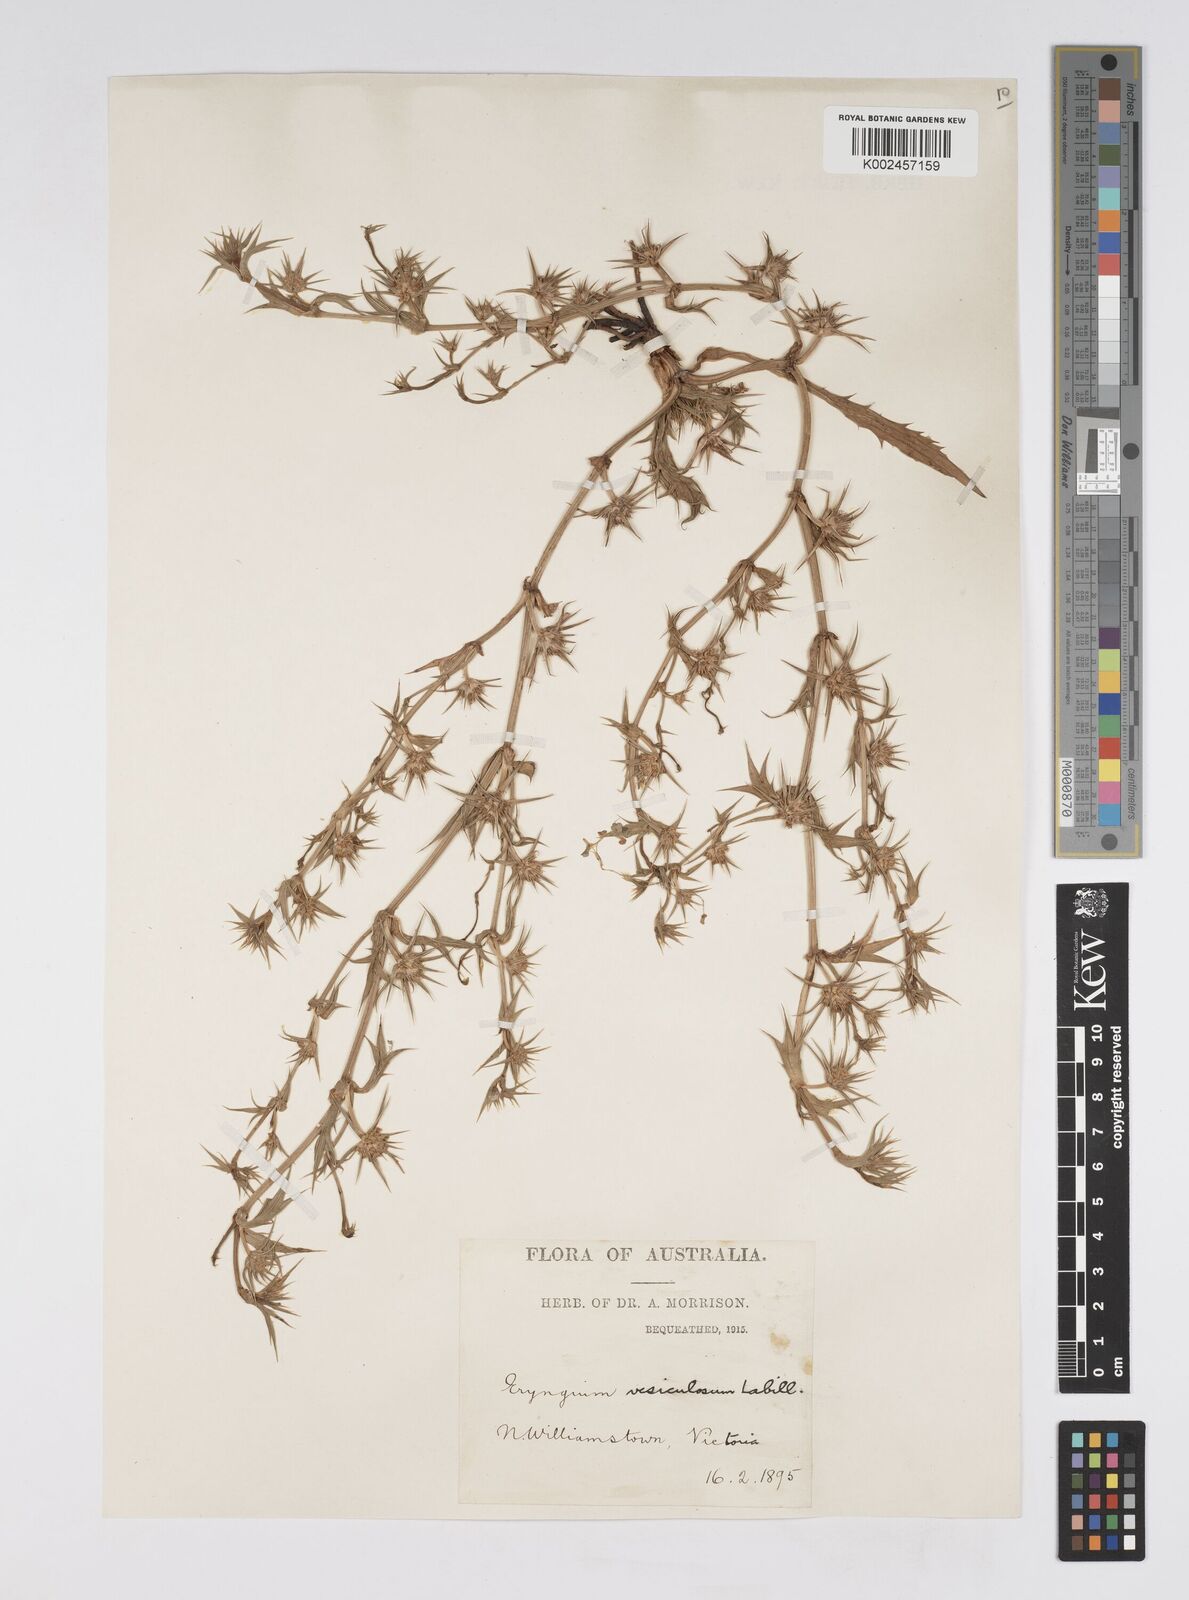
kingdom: Plantae
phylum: Tracheophyta
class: Magnoliopsida
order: Apiales
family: Apiaceae
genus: Eryngium
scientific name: Eryngium vesiculosum
